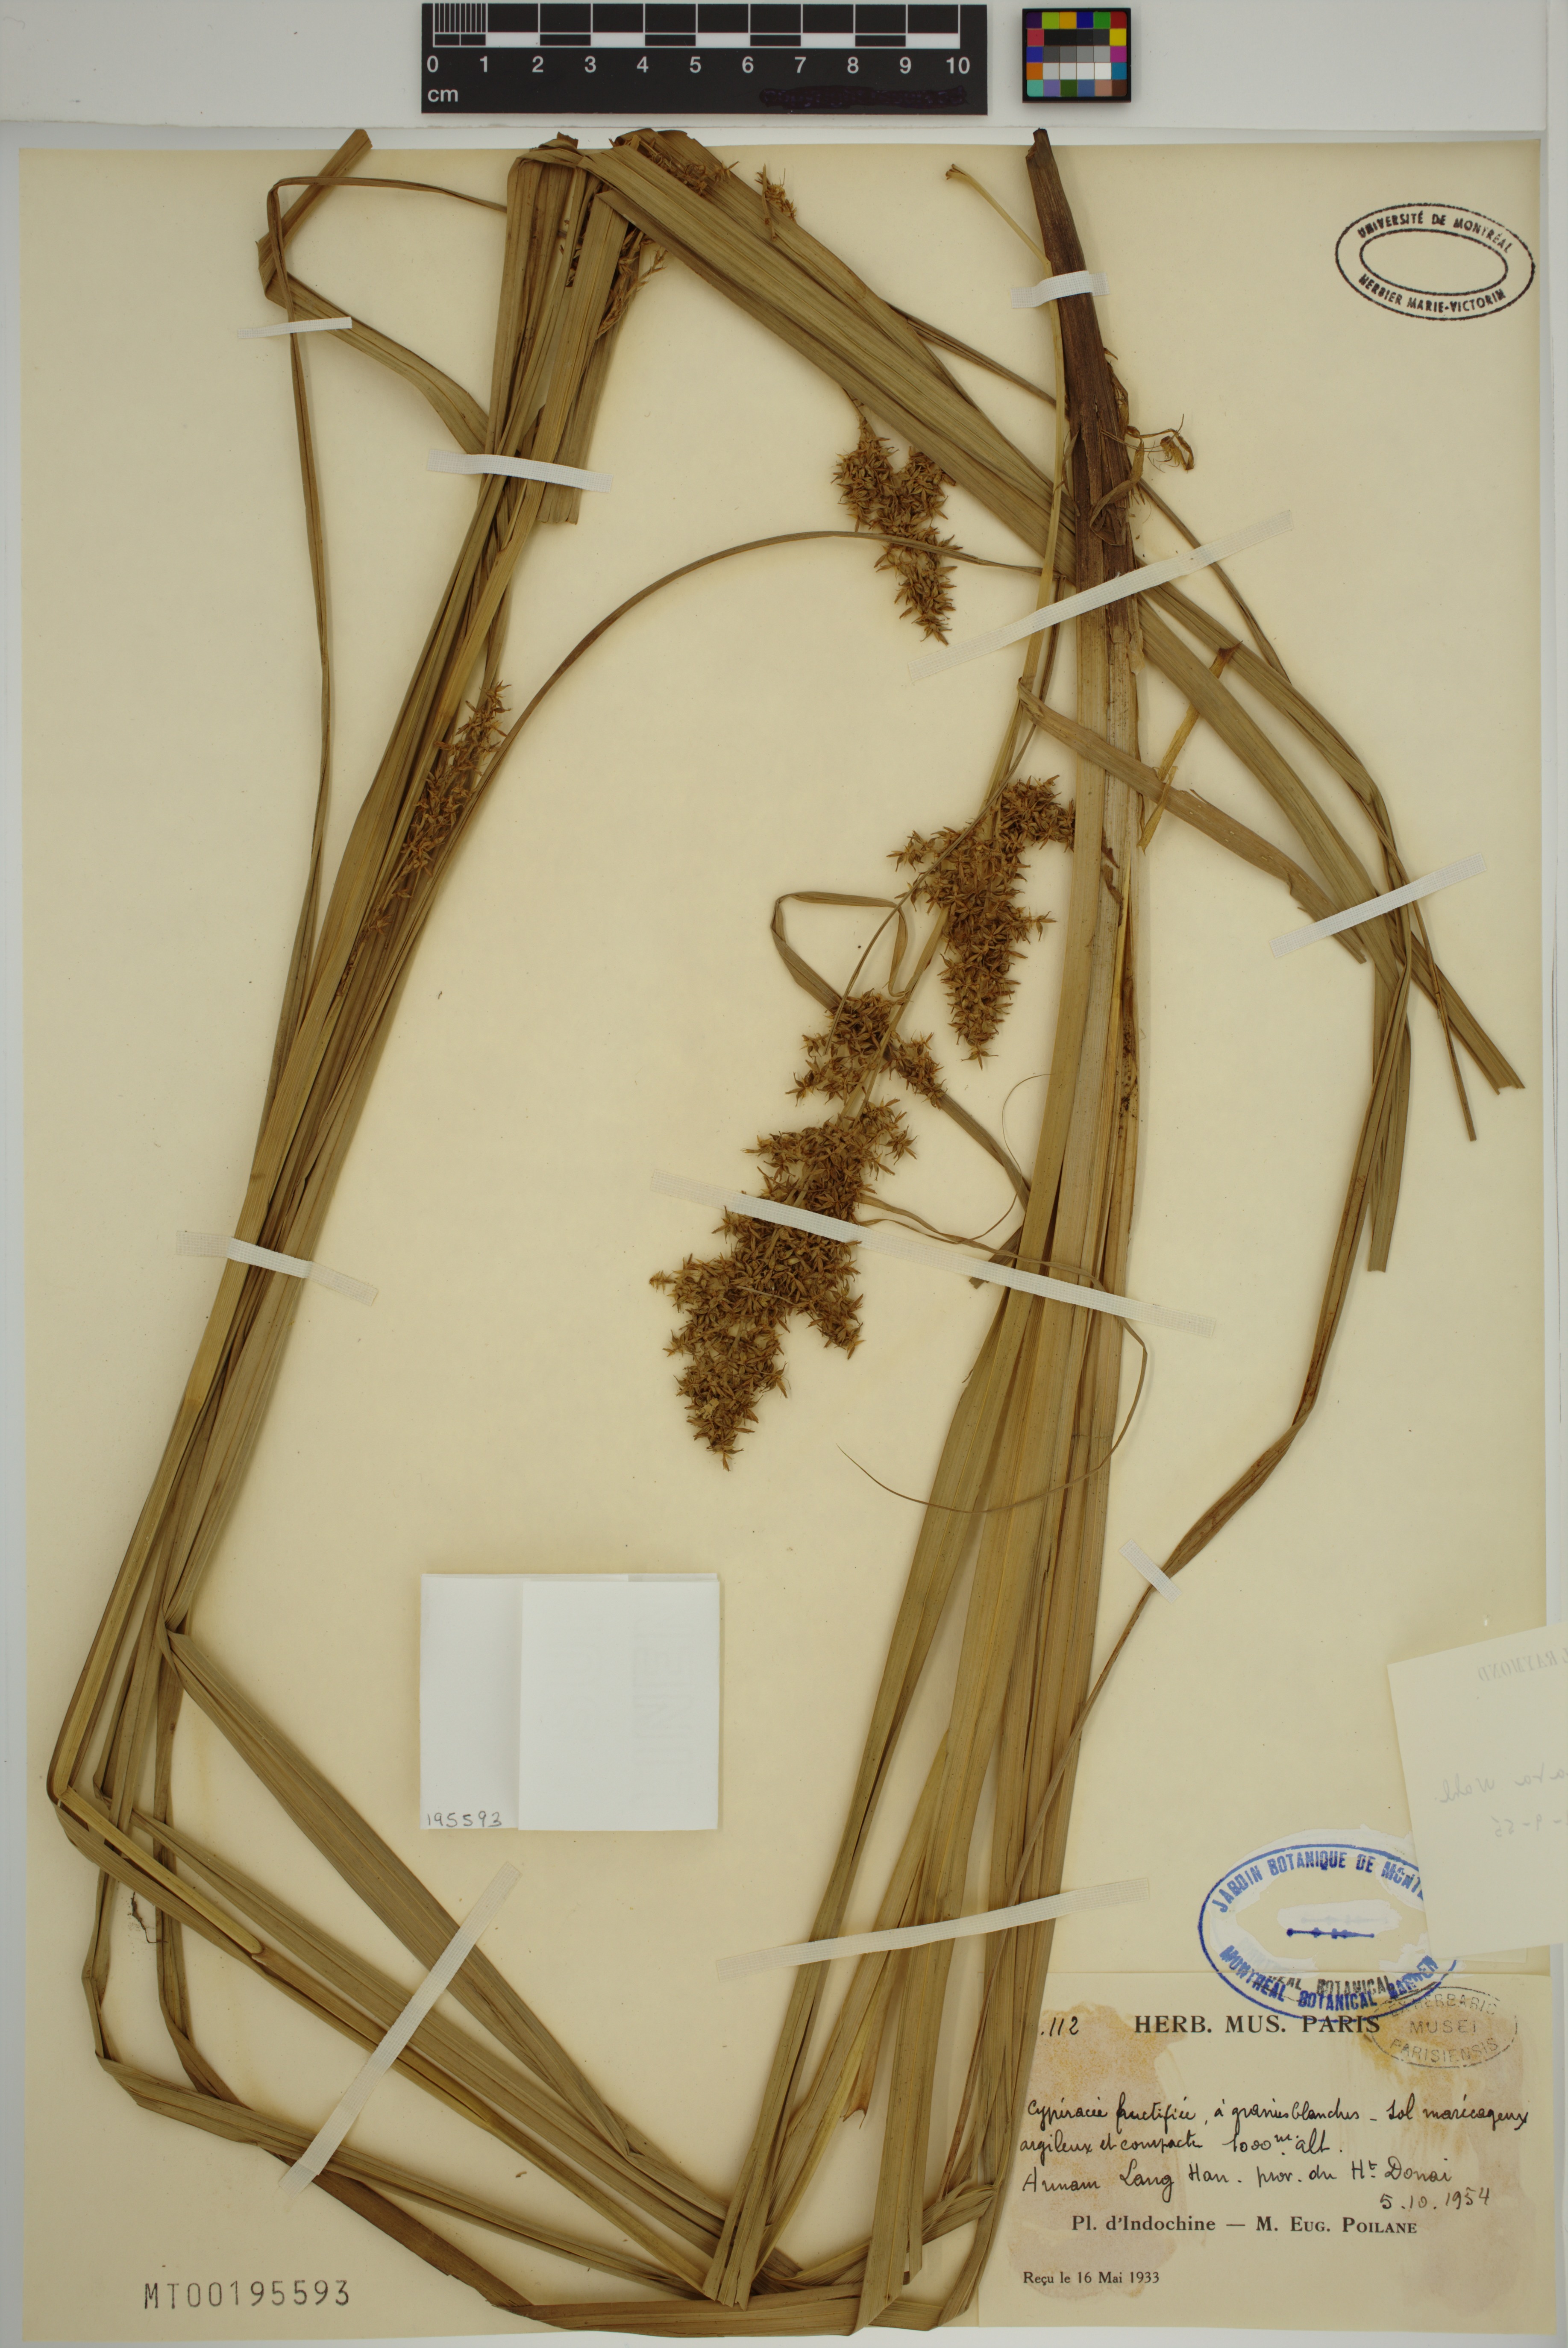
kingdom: Plantae
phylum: Tracheophyta
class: Liliopsida
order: Poales
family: Cyperaceae
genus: Carex
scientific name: Carex cruciata
